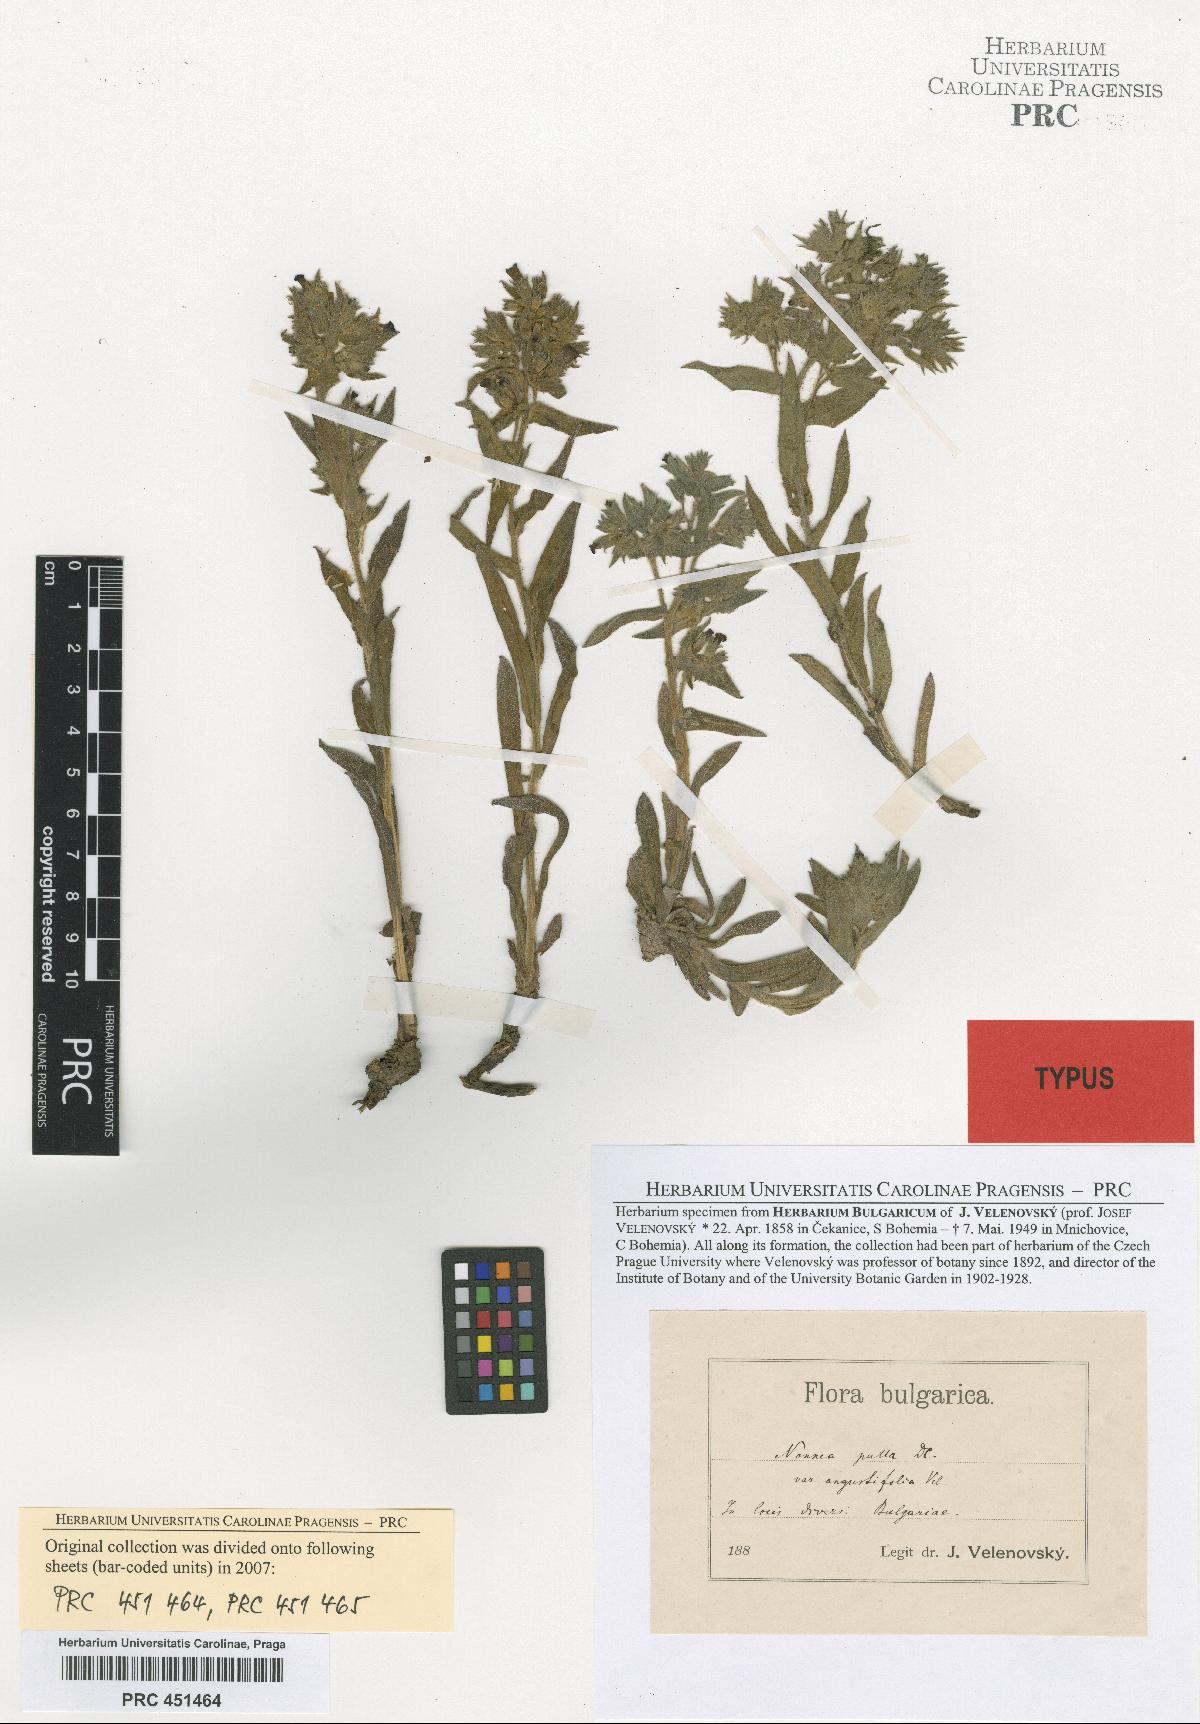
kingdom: Plantae
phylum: Tracheophyta
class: Magnoliopsida
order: Boraginales
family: Boraginaceae
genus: Nonea
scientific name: Nonea pulla
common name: Brown nonea
